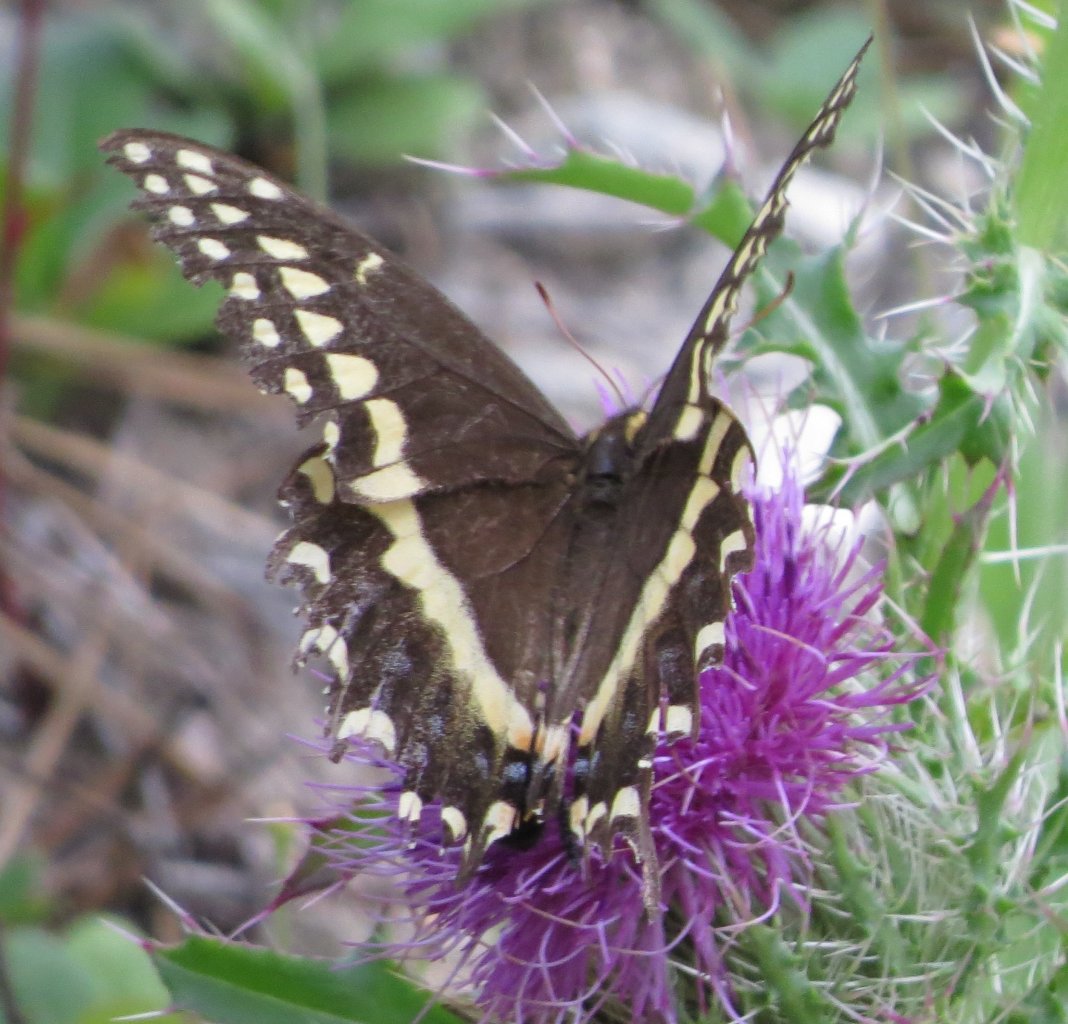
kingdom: Animalia
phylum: Arthropoda
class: Insecta
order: Lepidoptera
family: Papilionidae
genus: Pterourus
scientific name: Pterourus palamedes
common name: Palamedes Swallowtail
